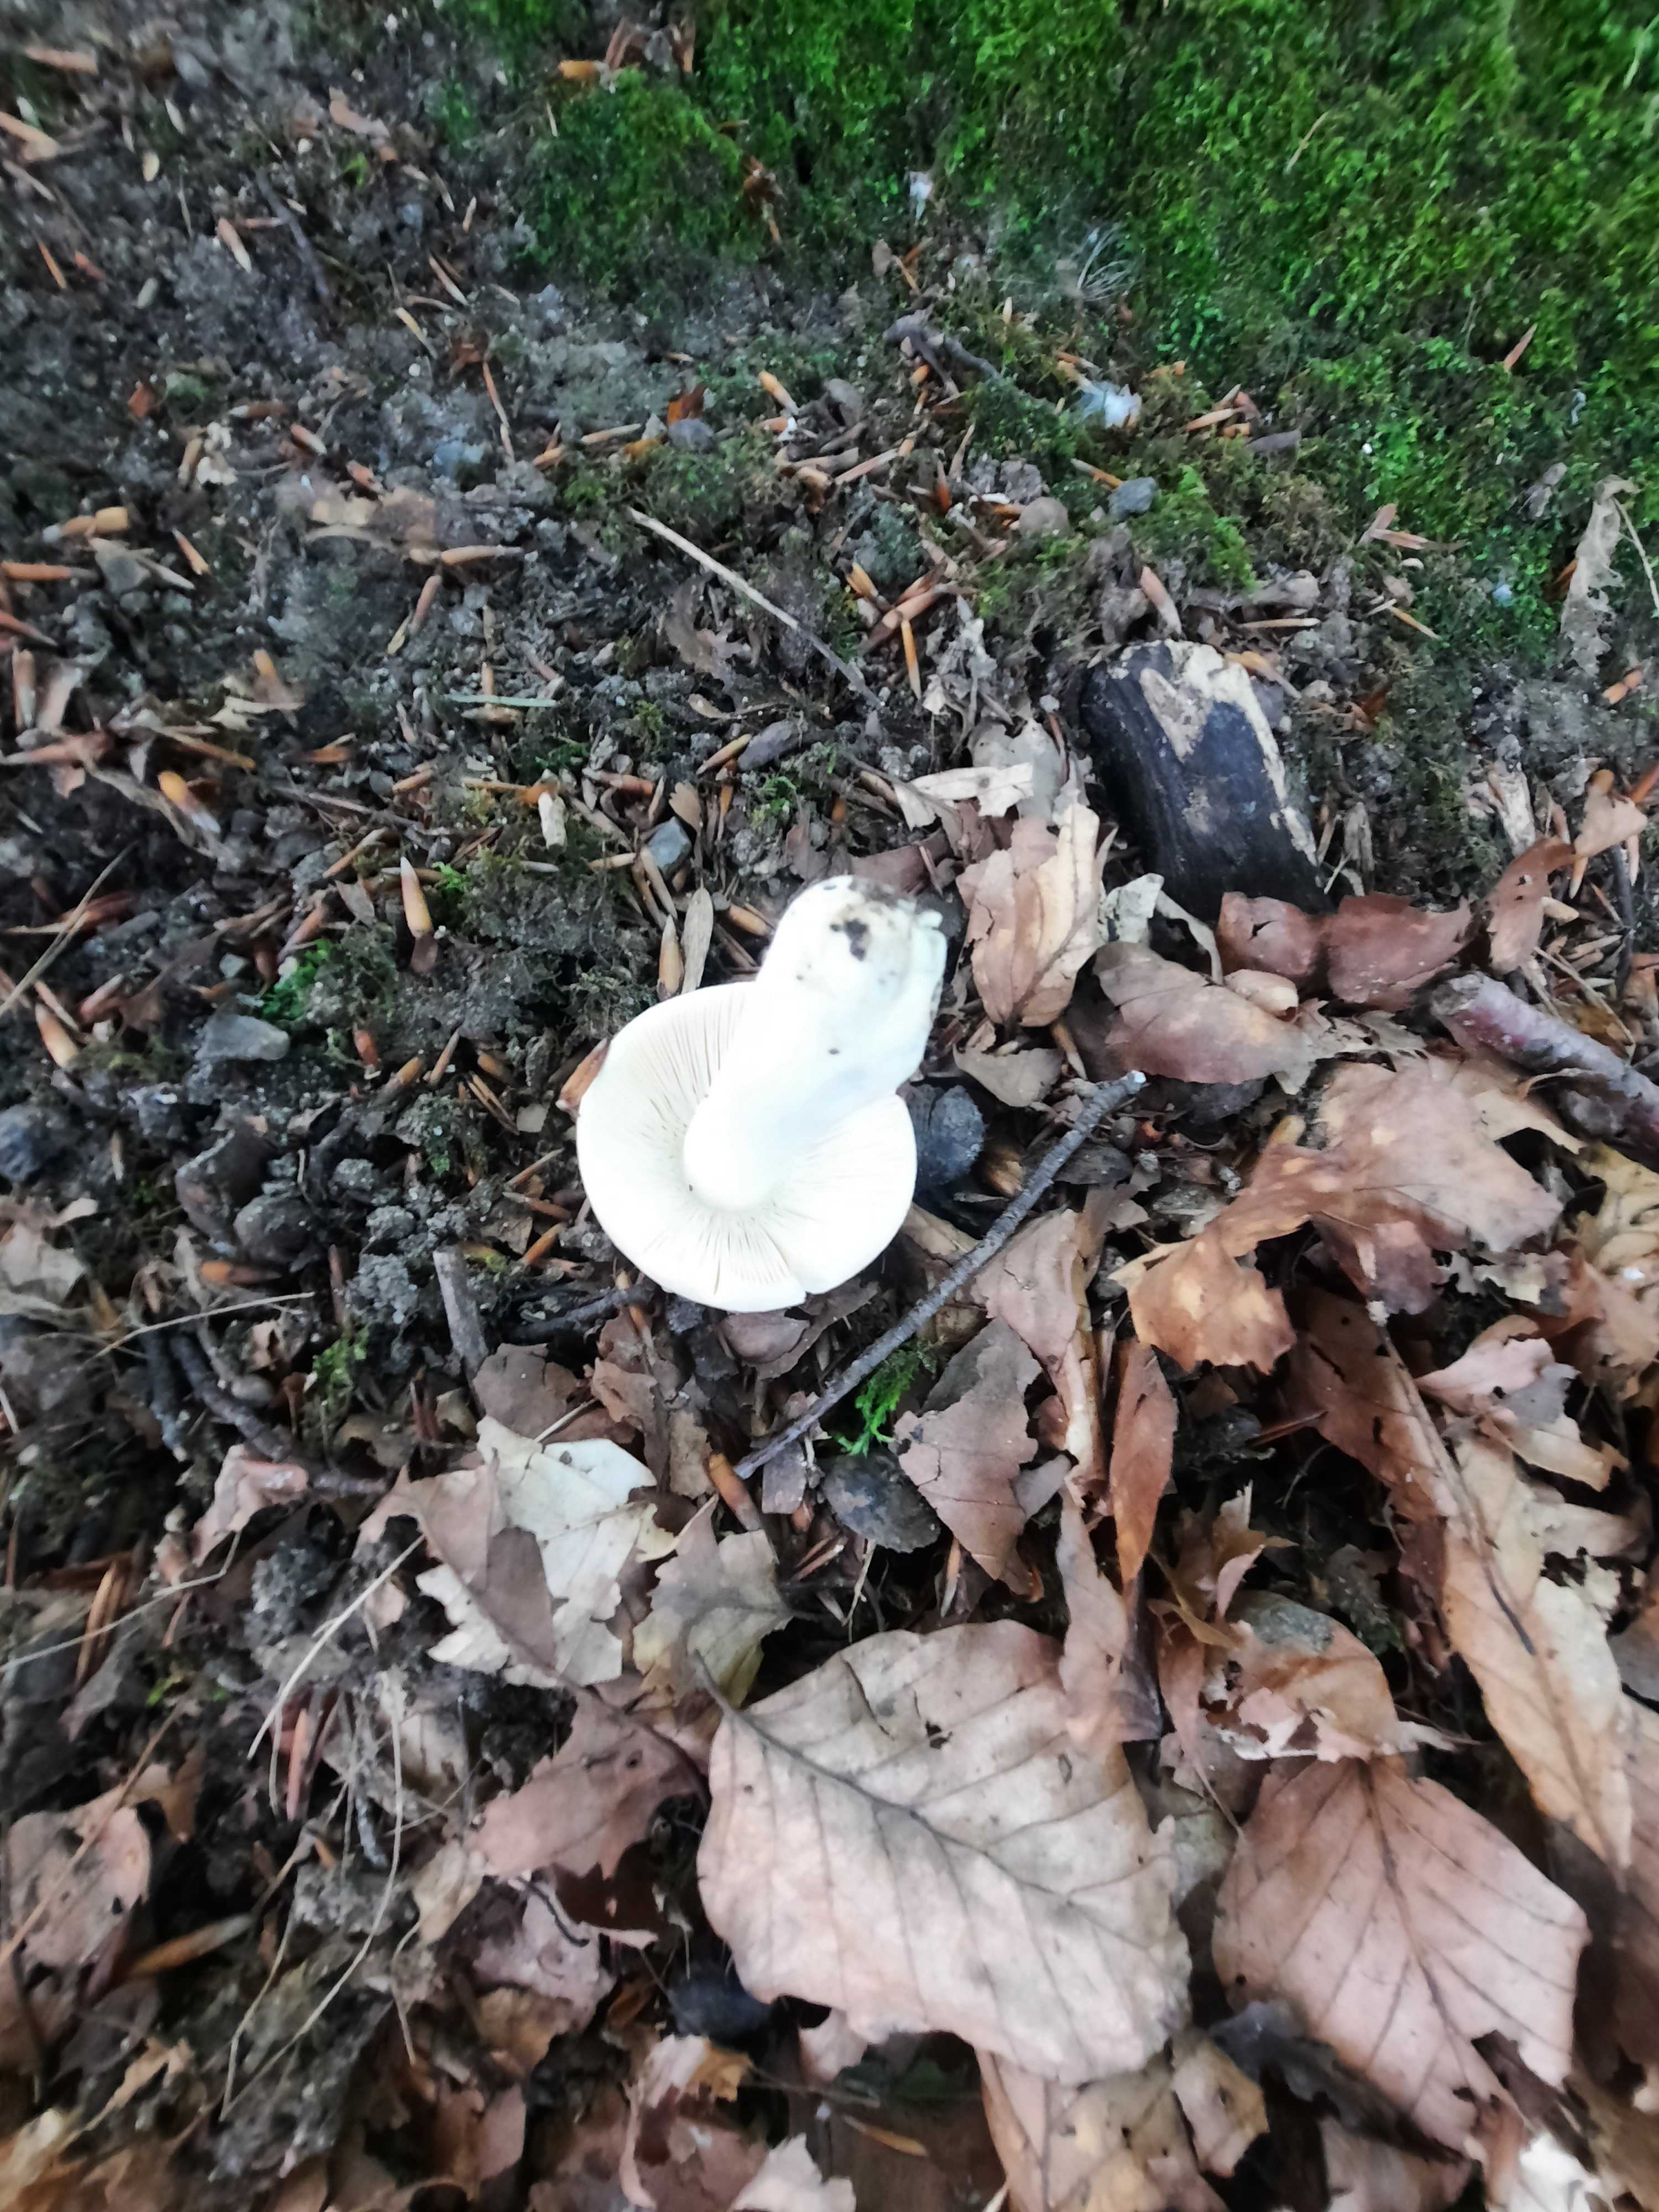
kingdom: Fungi
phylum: Basidiomycota
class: Agaricomycetes
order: Russulales
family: Russulaceae
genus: Russula
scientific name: Russula
